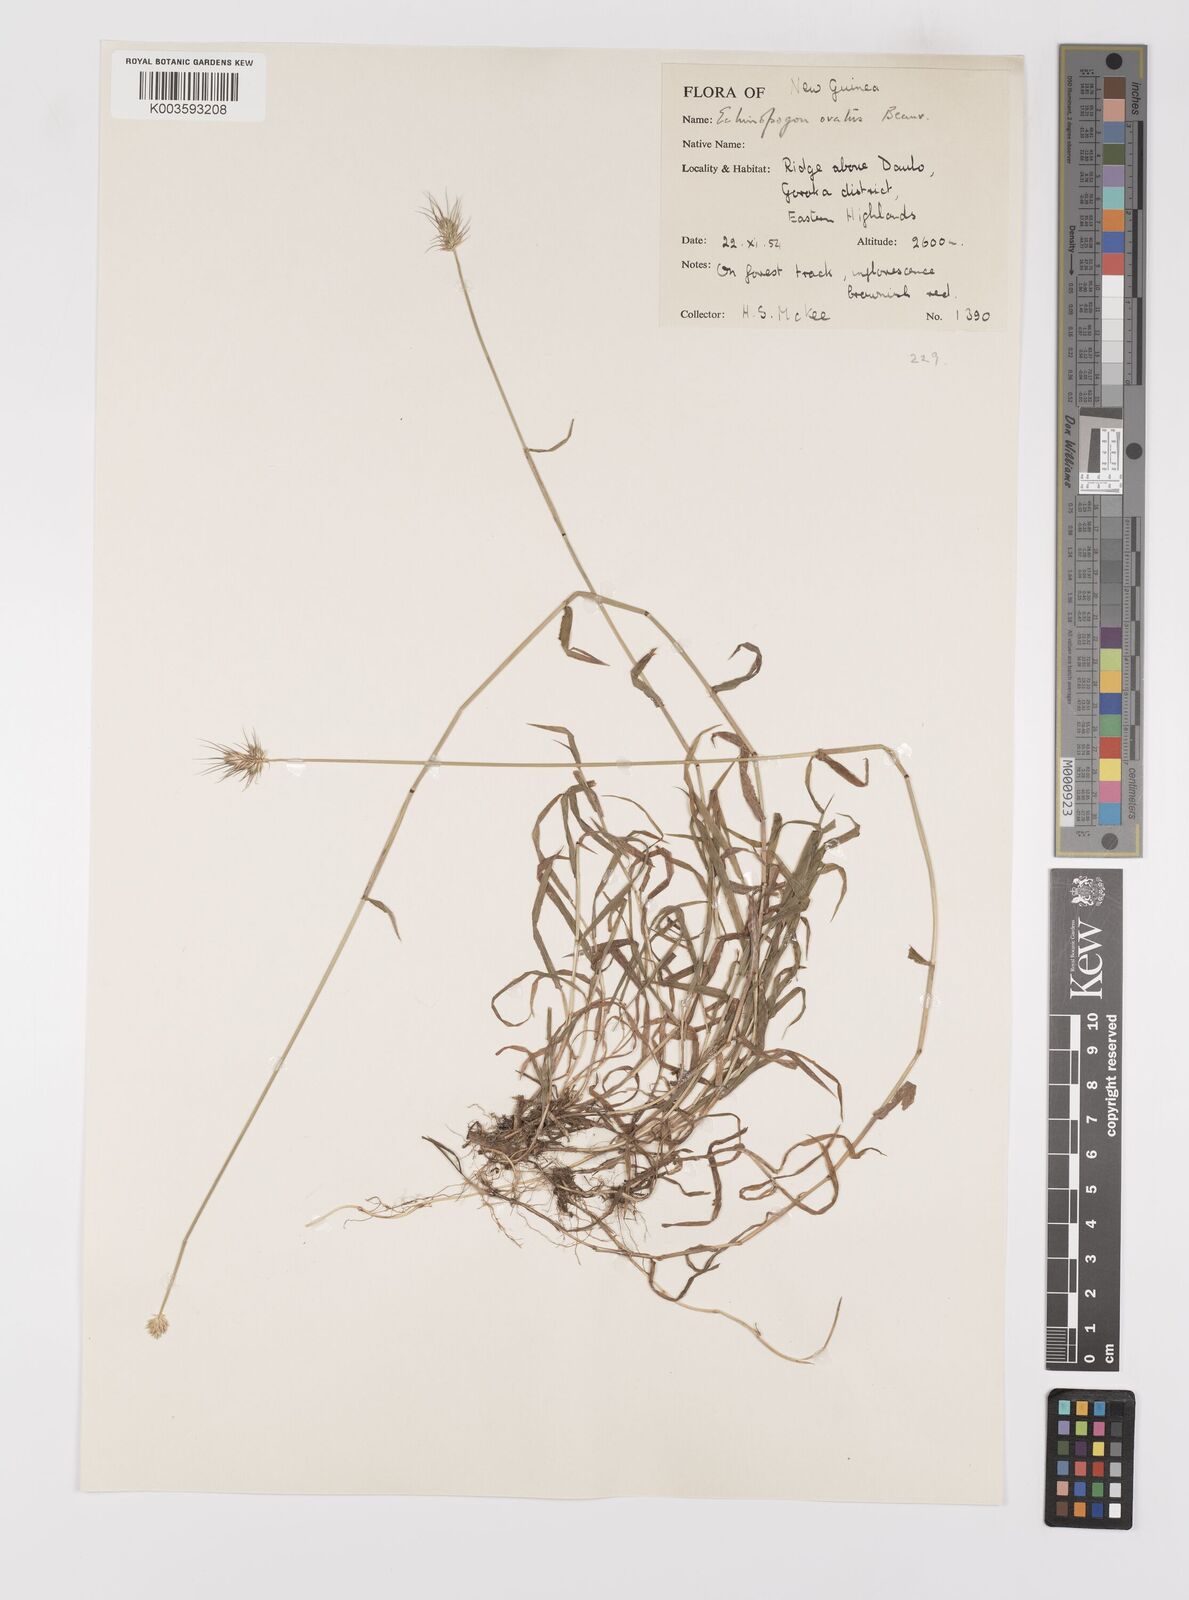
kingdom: Plantae
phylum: Tracheophyta
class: Liliopsida
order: Poales
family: Poaceae
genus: Echinopogon
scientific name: Echinopogon ovatus
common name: Hedgehog-grass
